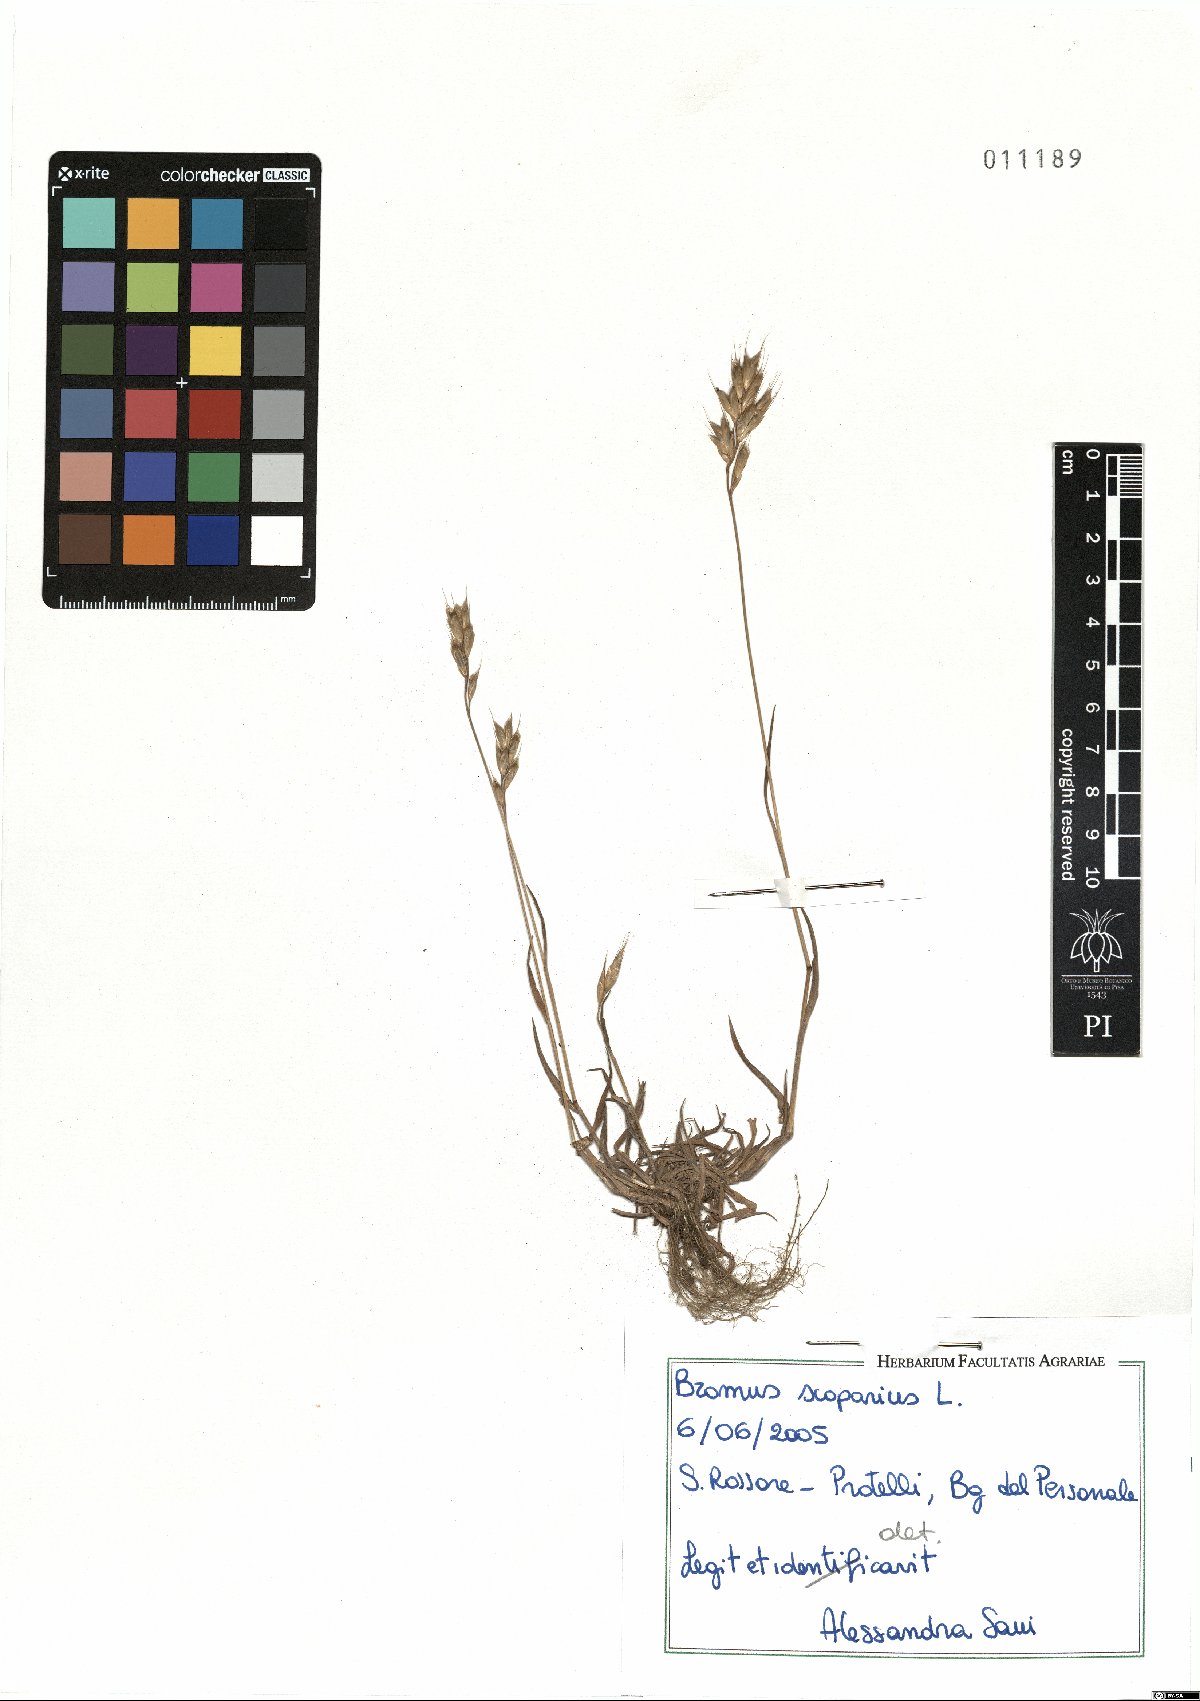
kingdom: Plantae
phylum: Tracheophyta
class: Liliopsida
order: Poales
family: Poaceae
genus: Bromus
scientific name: Bromus scoparius
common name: Broom brome
